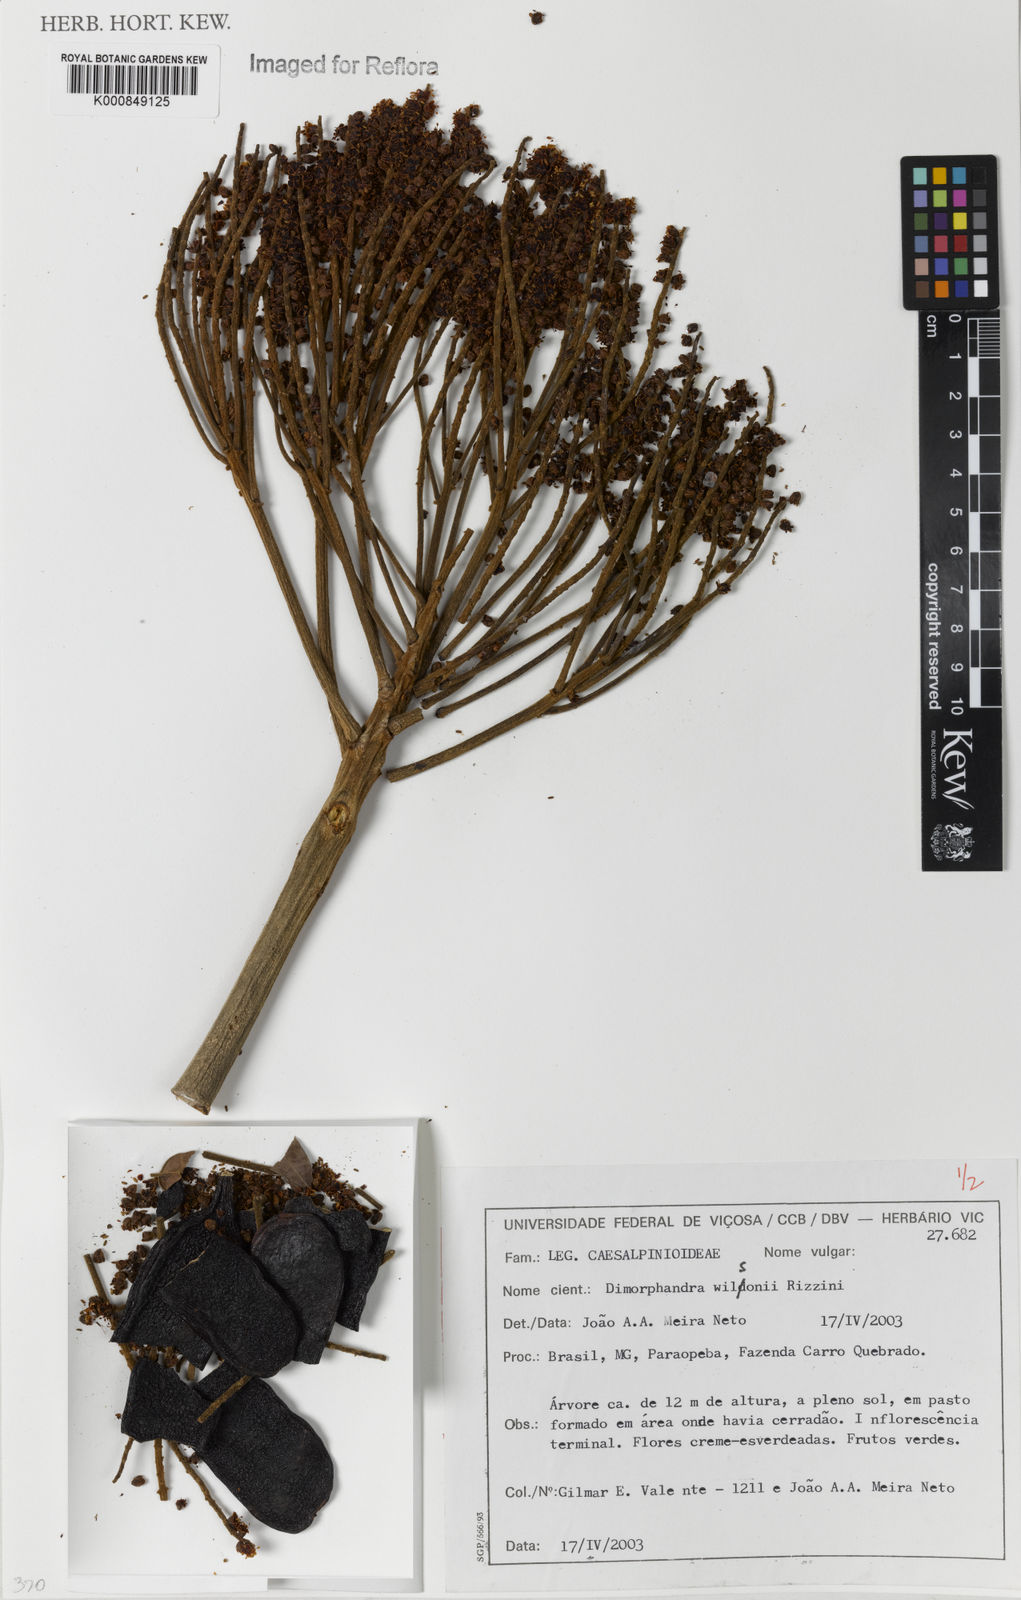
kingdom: Plantae
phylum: Tracheophyta
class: Magnoliopsida
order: Fabales
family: Fabaceae
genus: Dimorphandra
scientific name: Dimorphandra wilsonii
